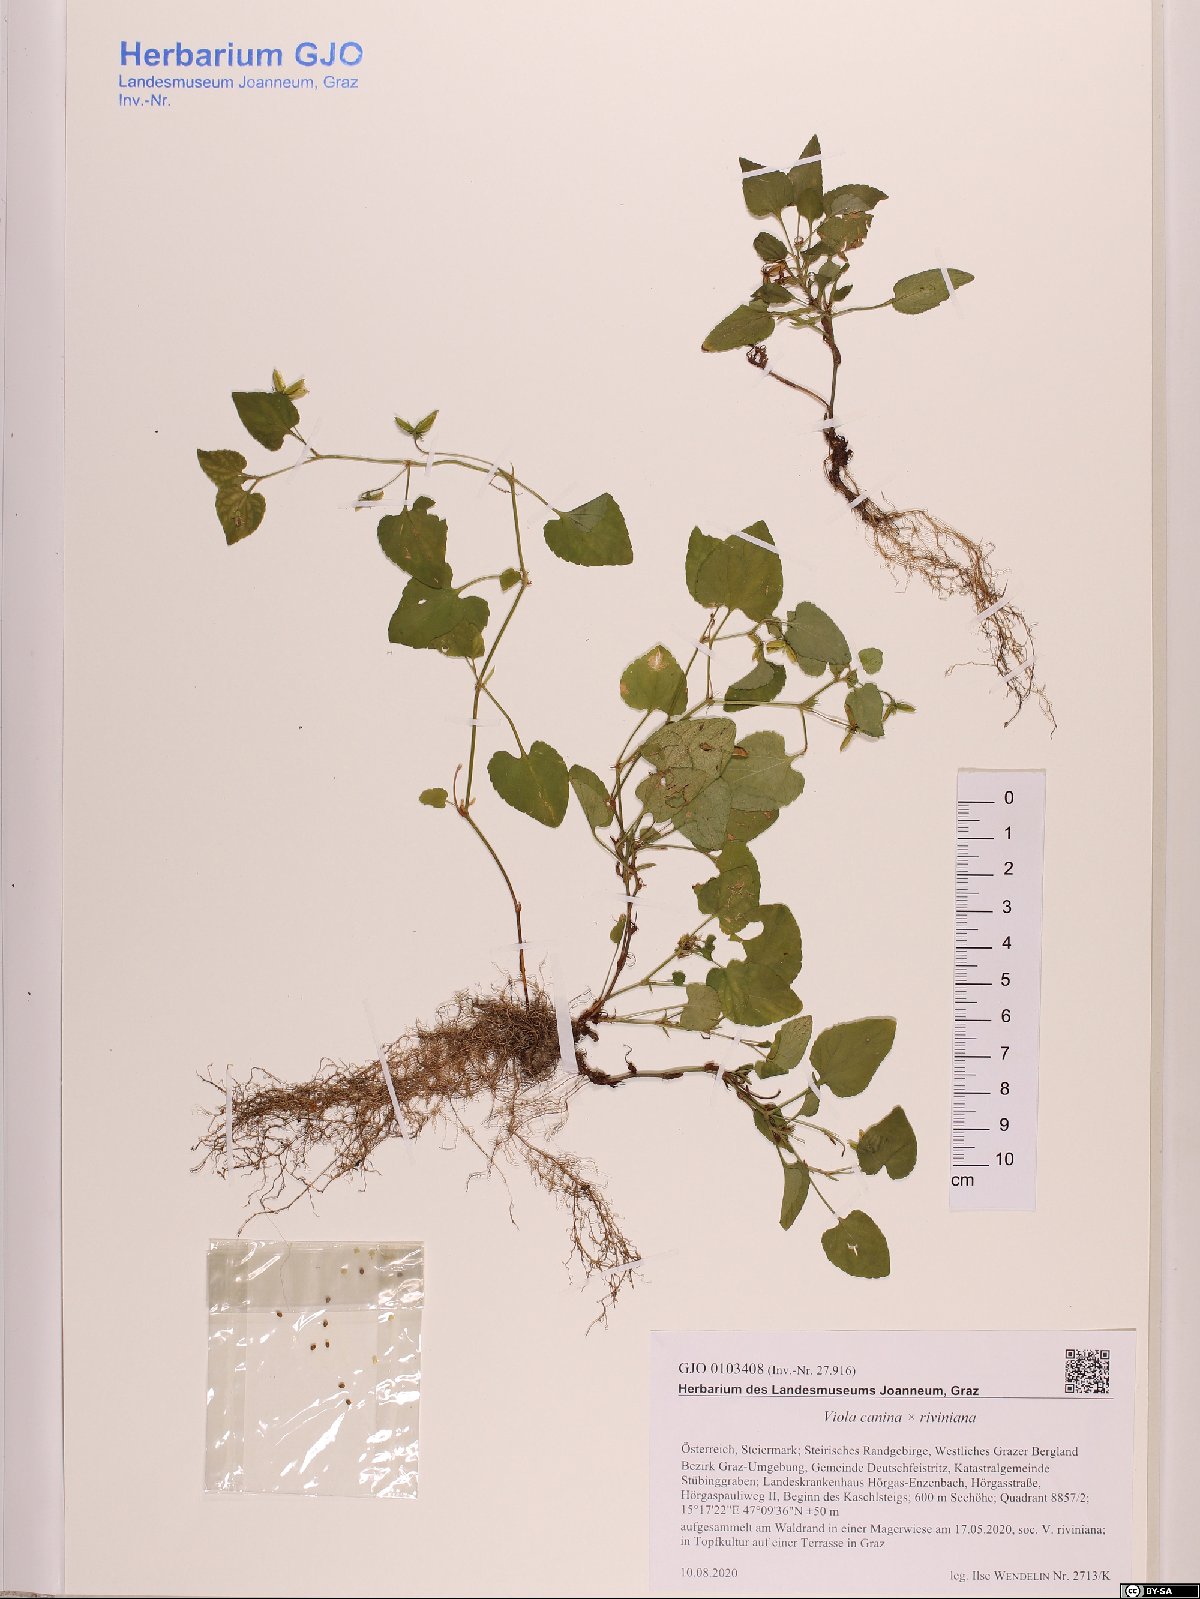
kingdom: Plantae
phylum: Tracheophyta
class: Magnoliopsida
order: Malpighiales
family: Violaceae
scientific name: Violaceae
